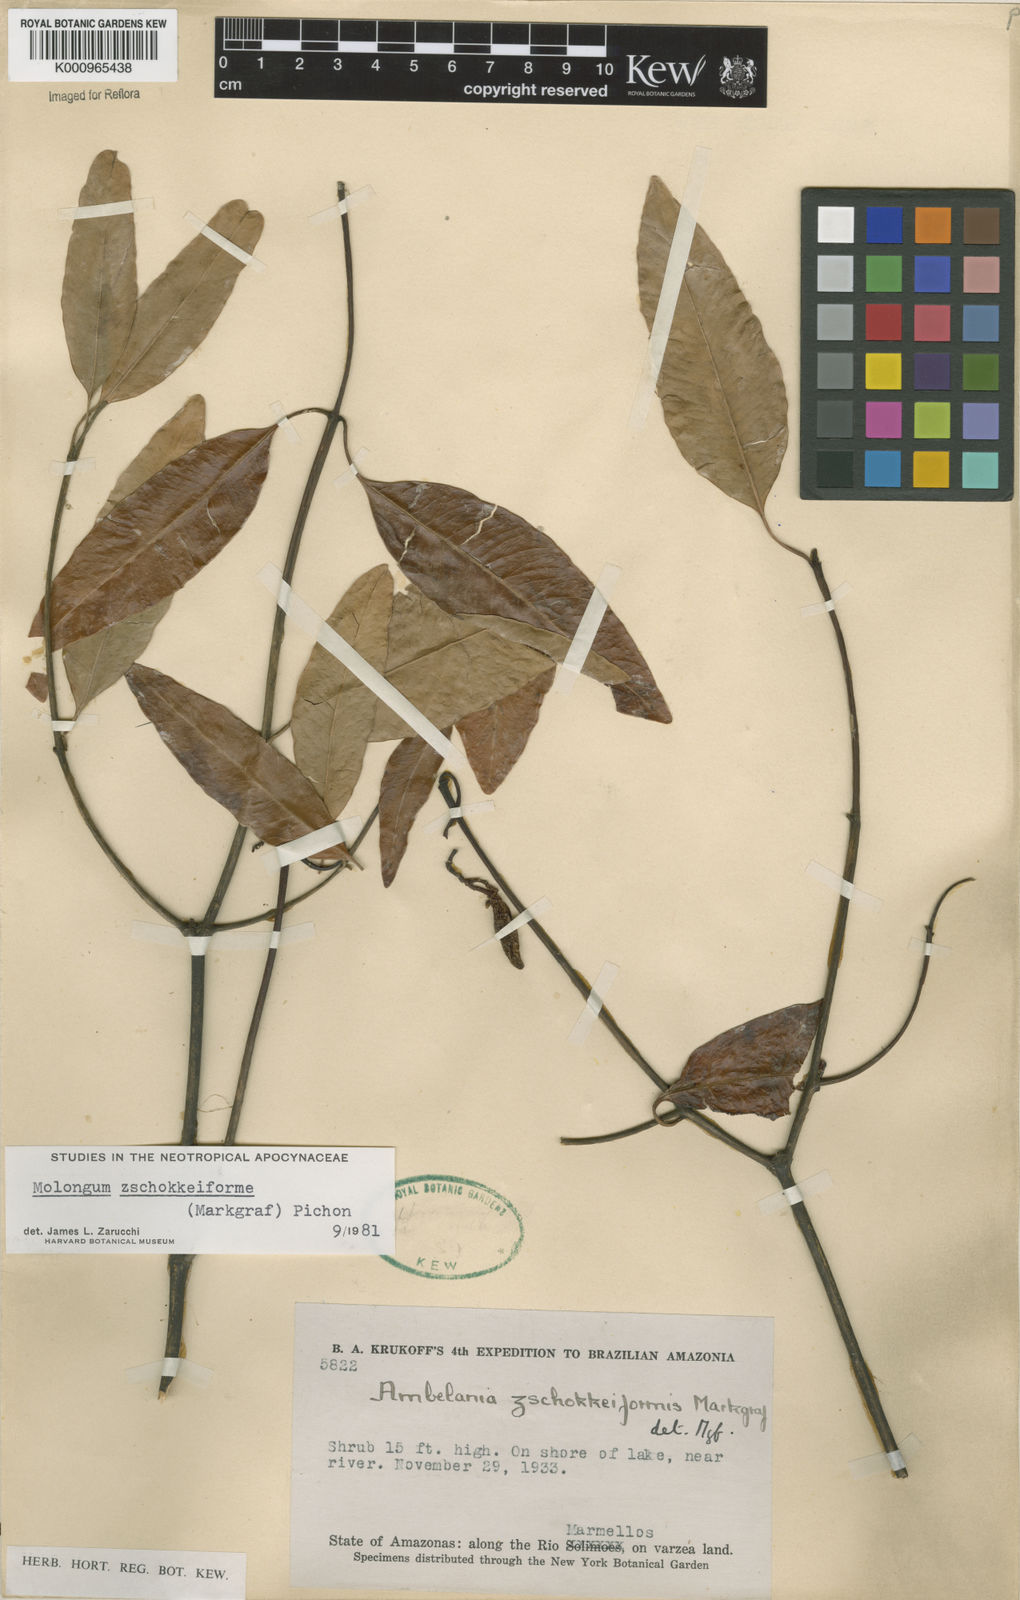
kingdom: Plantae
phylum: Tracheophyta
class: Magnoliopsida
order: Gentianales
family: Apocynaceae
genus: Molongum
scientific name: Molongum zschokkeiforme
